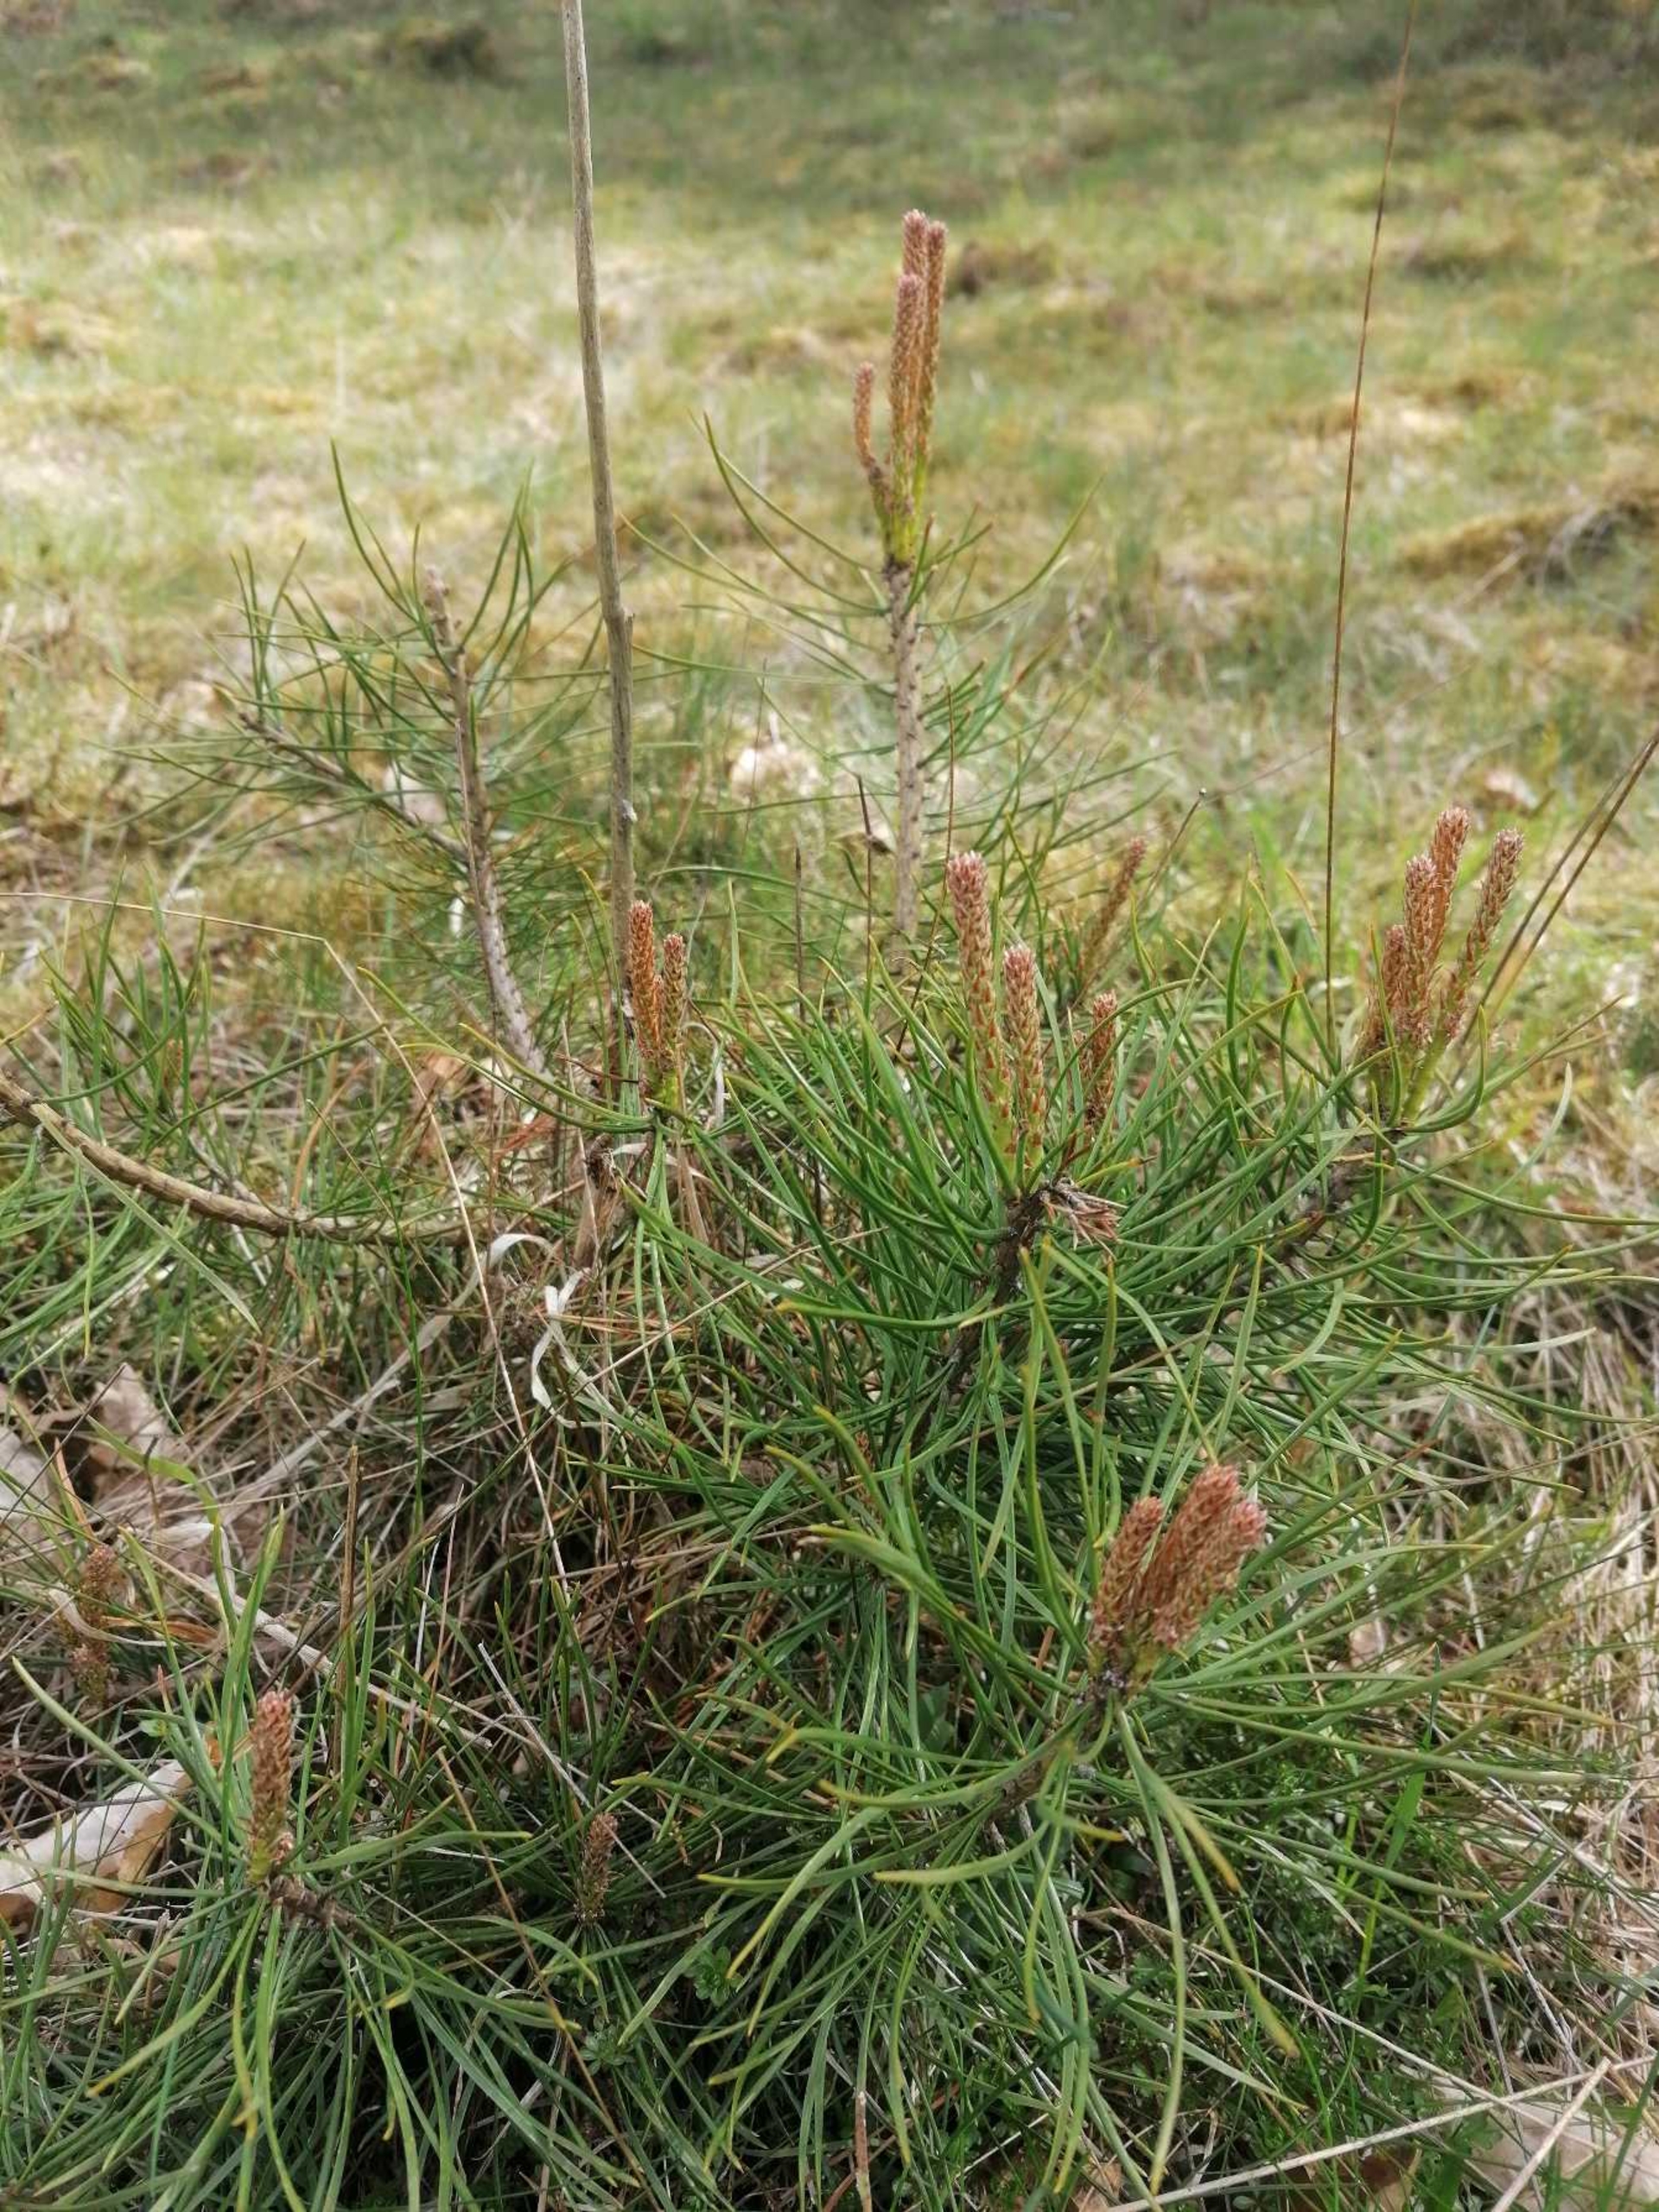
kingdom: Plantae
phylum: Tracheophyta
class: Pinopsida
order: Pinales
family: Pinaceae
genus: Pinus
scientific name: Pinus mugo
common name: Bjerg-fyr
